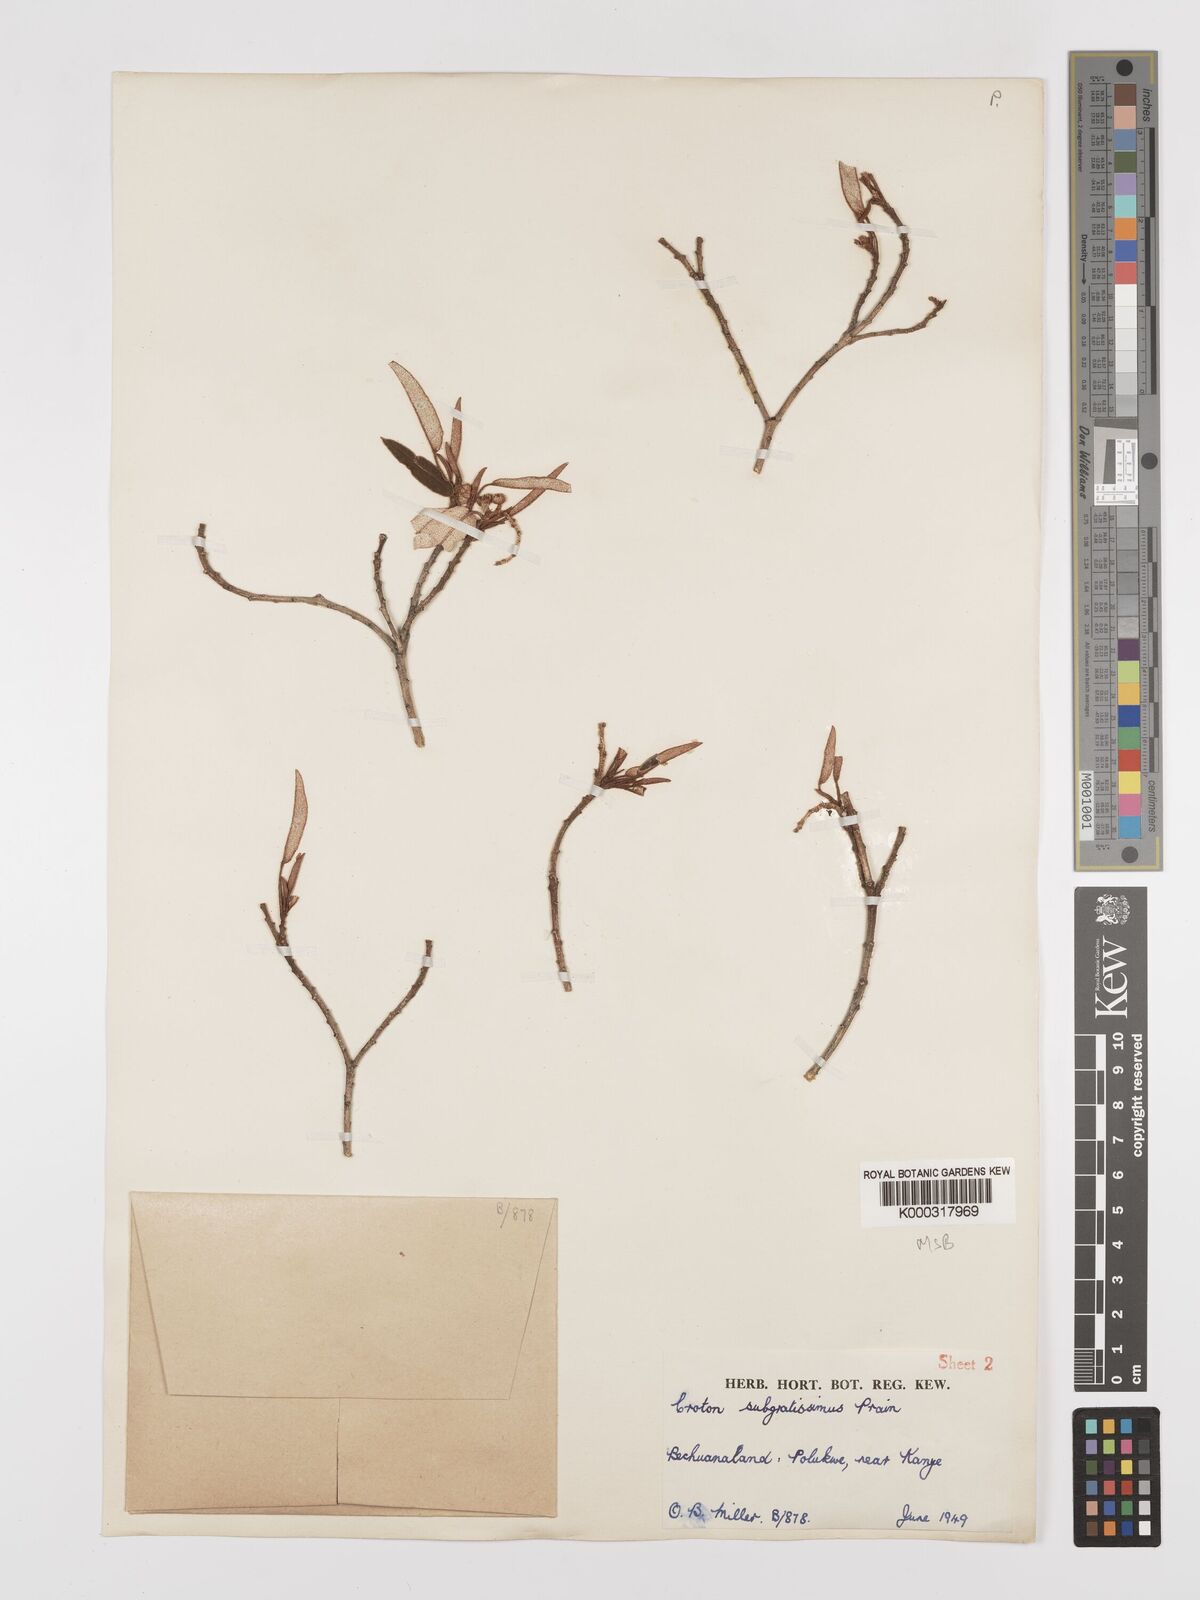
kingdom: Plantae
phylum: Tracheophyta
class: Magnoliopsida
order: Malpighiales
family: Euphorbiaceae
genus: Croton
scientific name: Croton gratissimus
